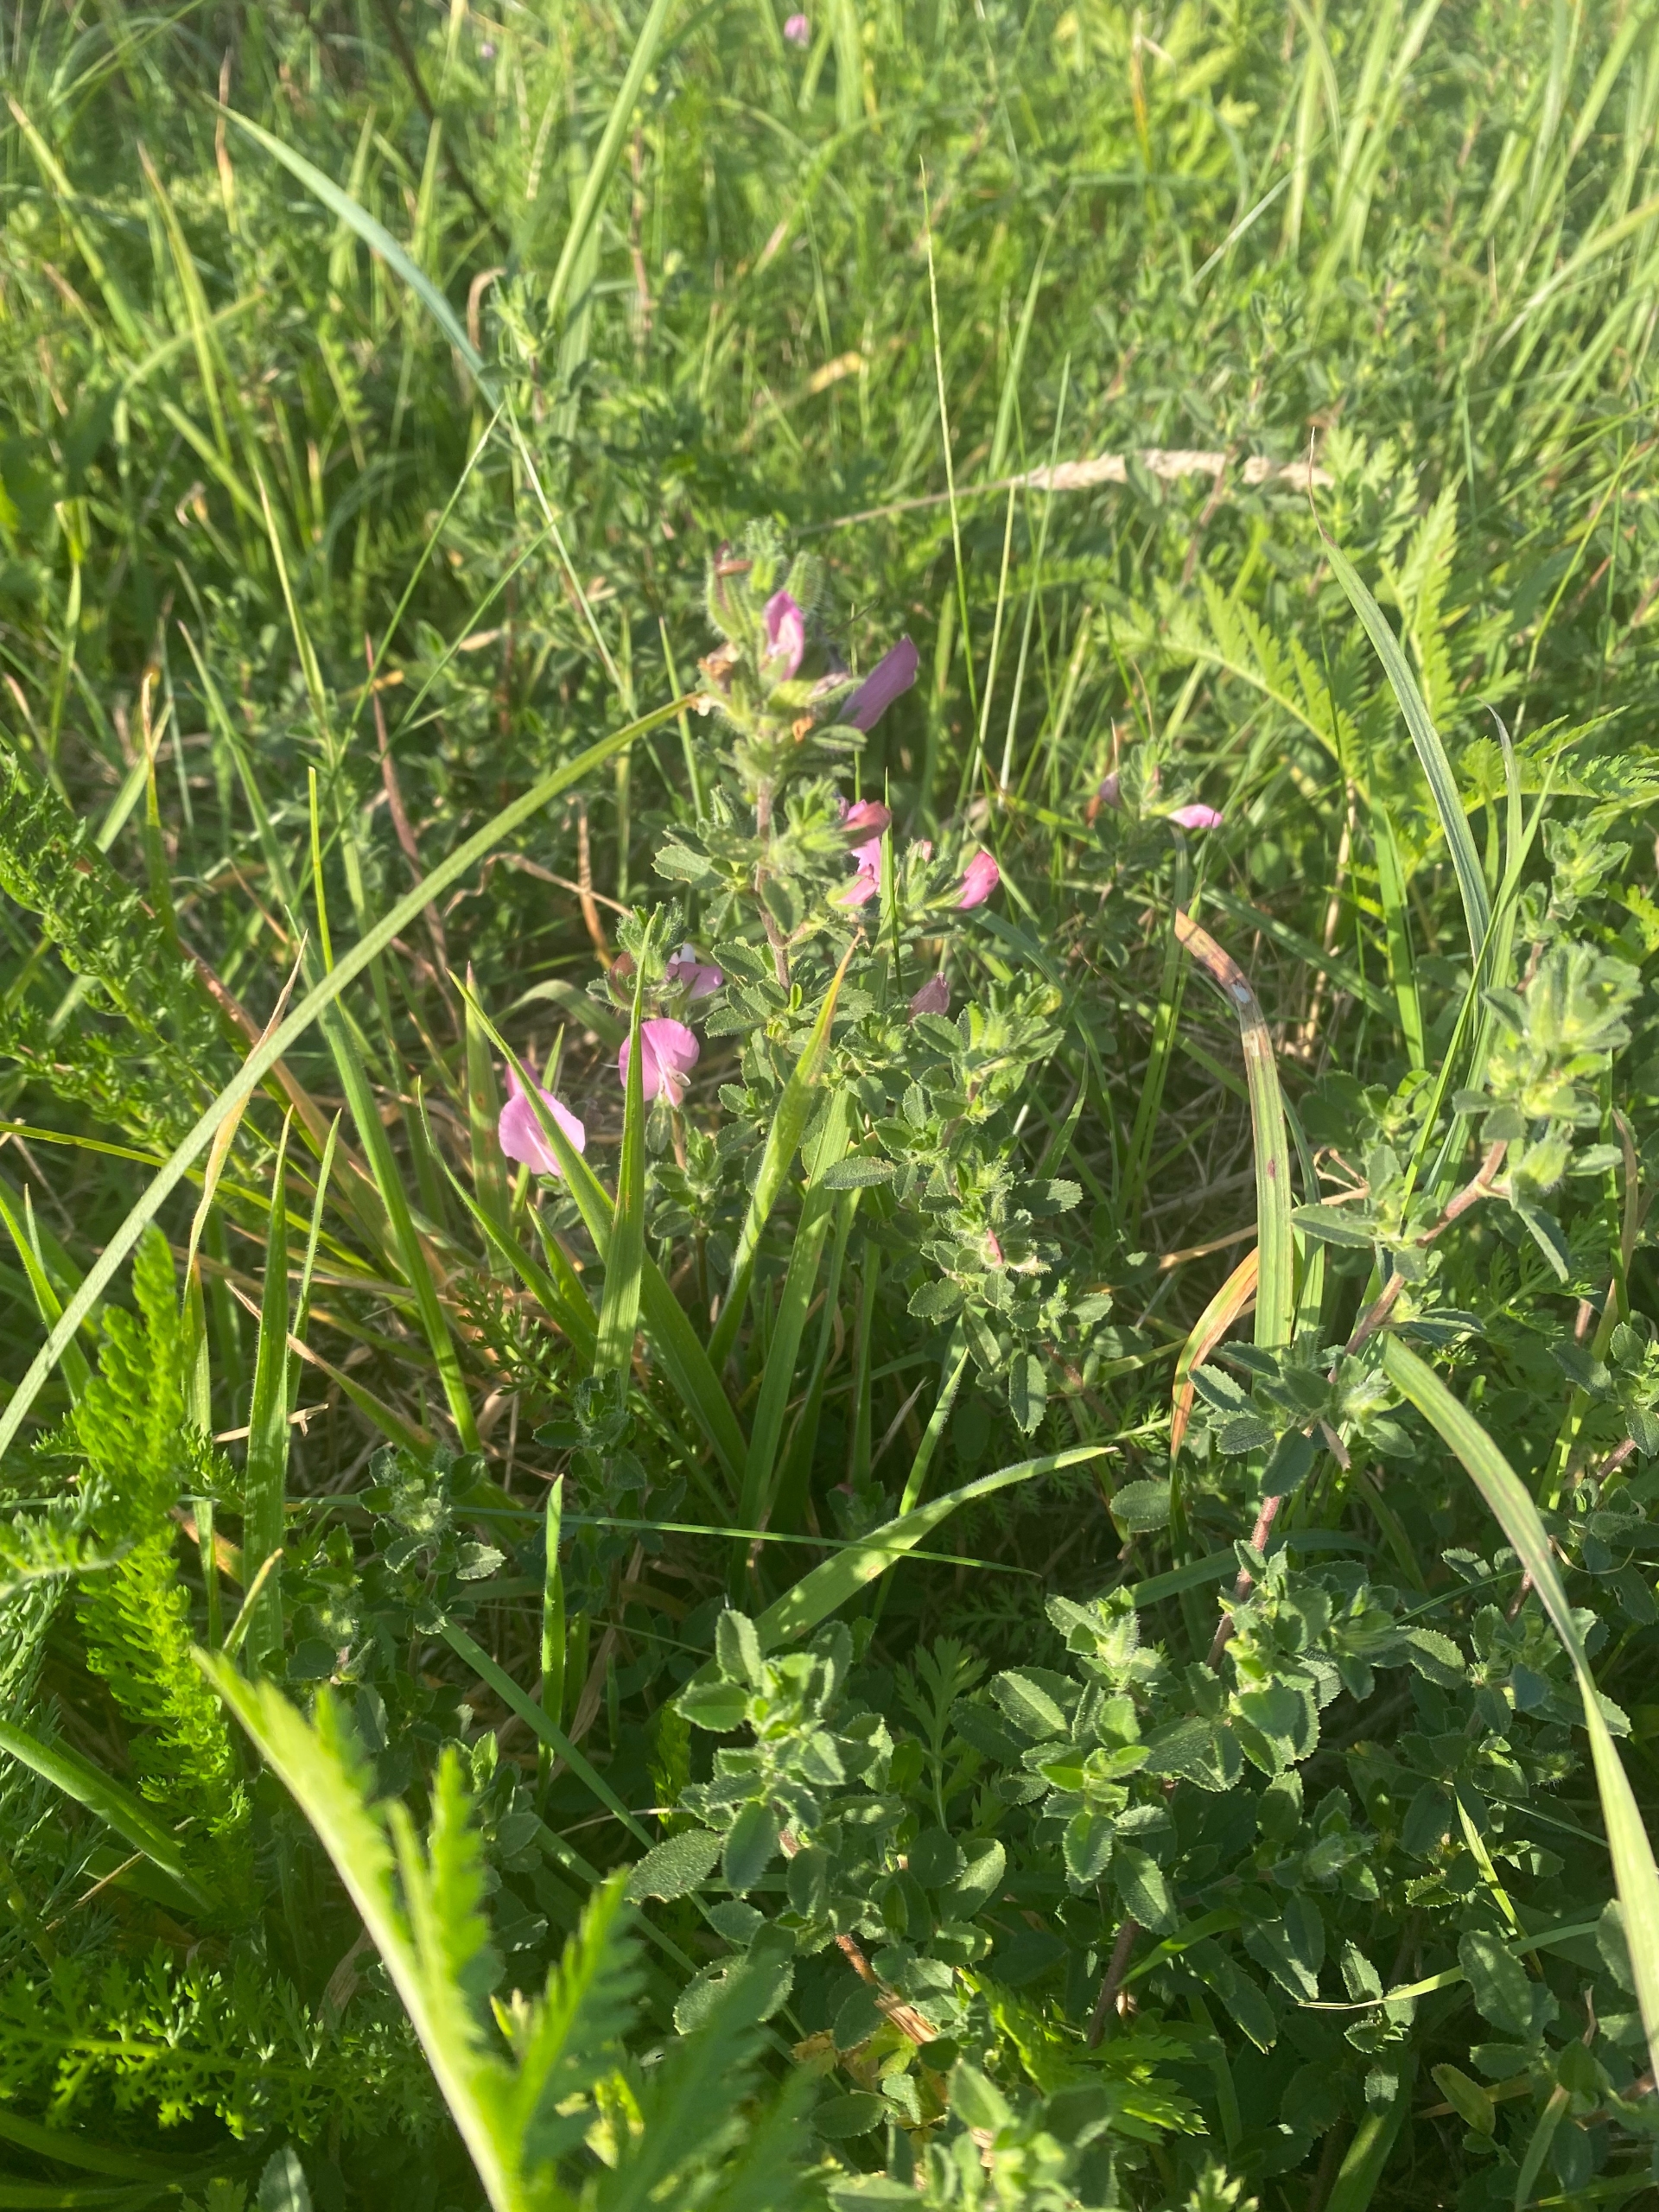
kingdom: Plantae
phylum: Tracheophyta
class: Magnoliopsida
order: Fabales
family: Fabaceae
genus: Ononis
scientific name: Ononis spinosa
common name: Krageklo
